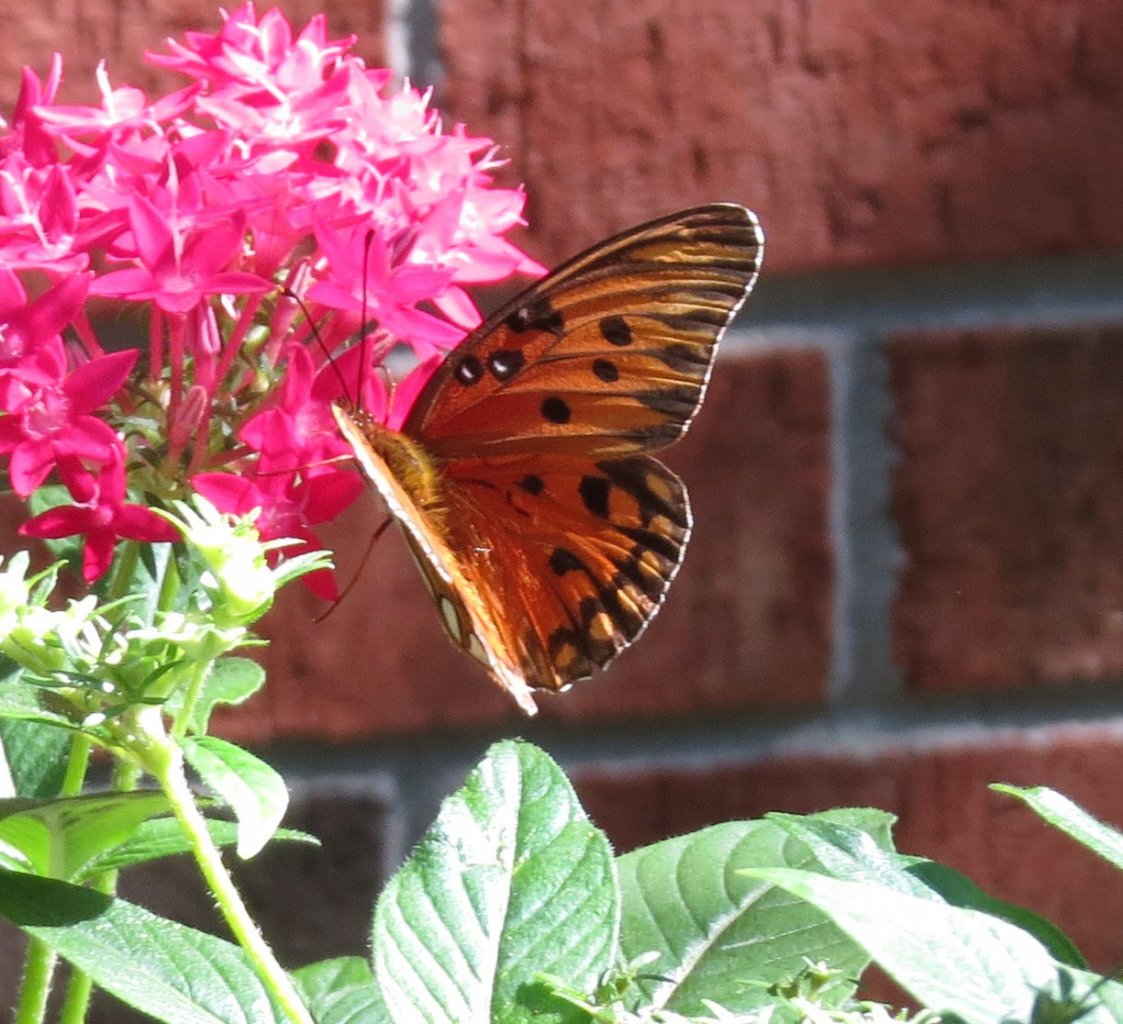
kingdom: Animalia
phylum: Arthropoda
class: Insecta
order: Lepidoptera
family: Nymphalidae
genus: Dione
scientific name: Dione vanillae
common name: Gulf Fritillary
